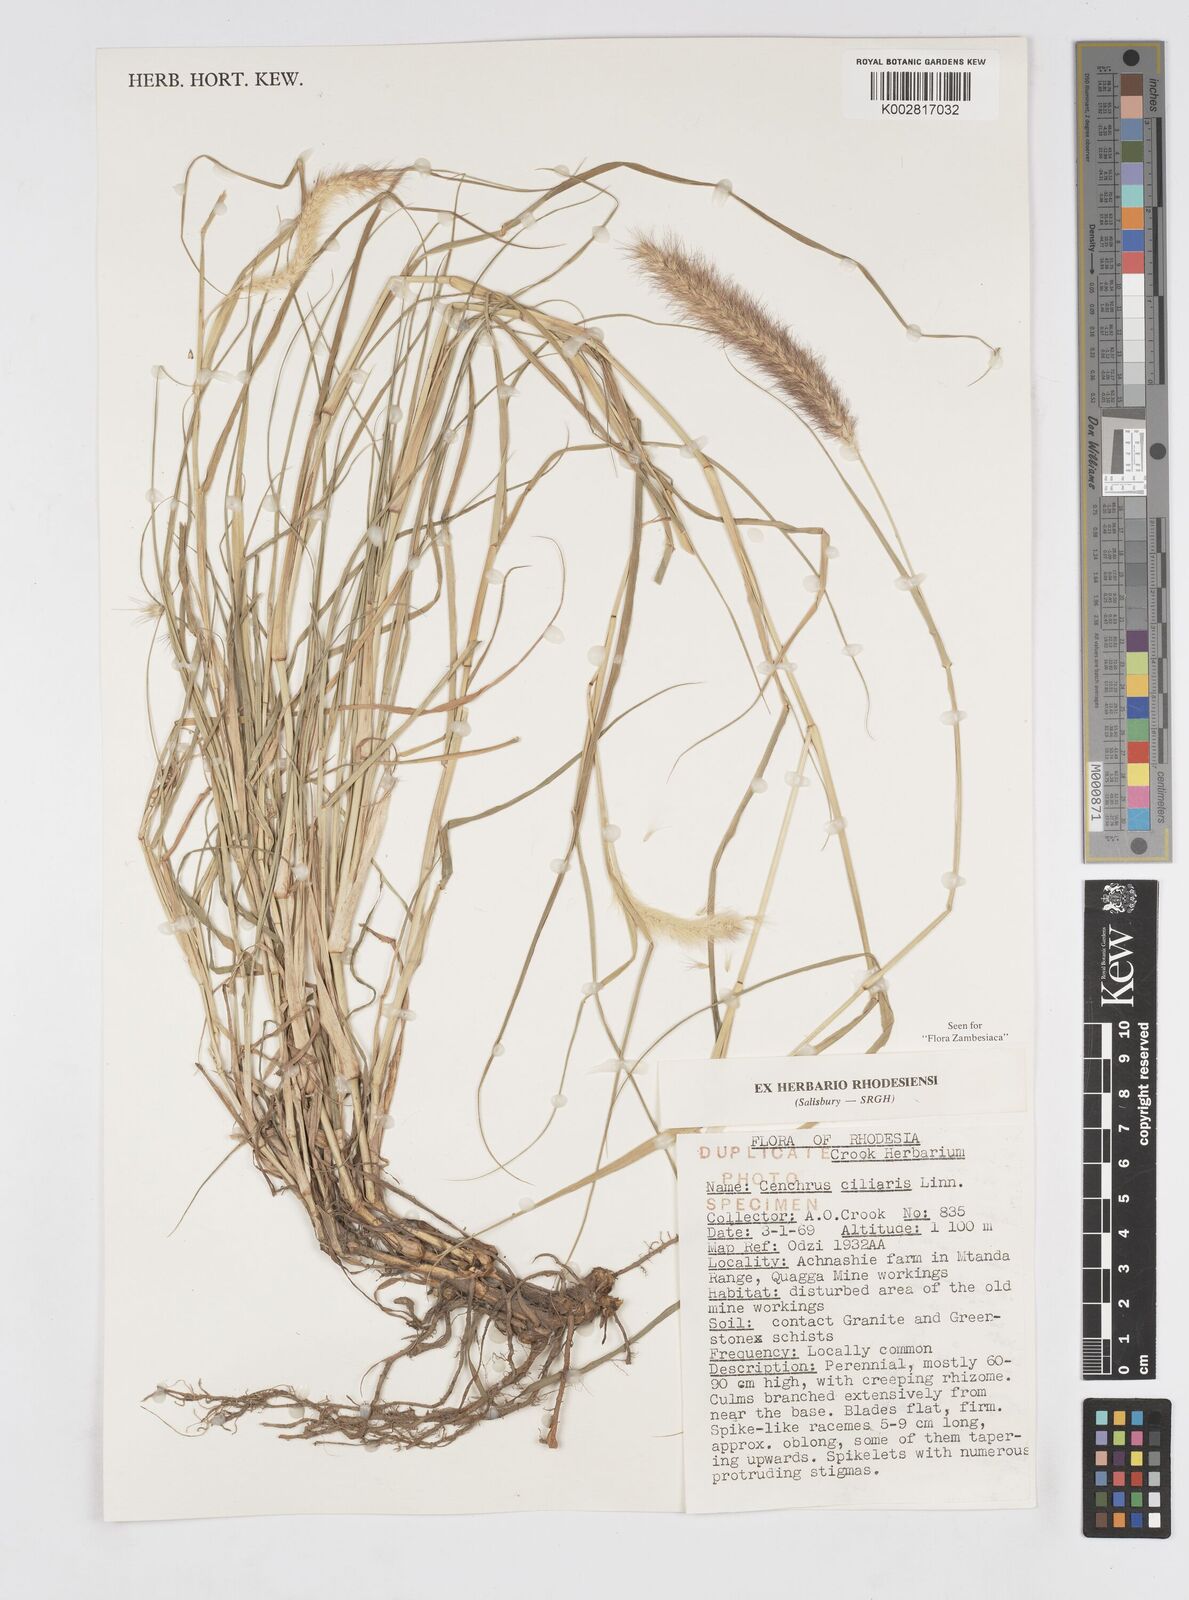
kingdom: Plantae
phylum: Tracheophyta
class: Liliopsida
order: Poales
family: Poaceae
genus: Cenchrus
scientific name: Cenchrus ciliaris
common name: Buffelgrass
